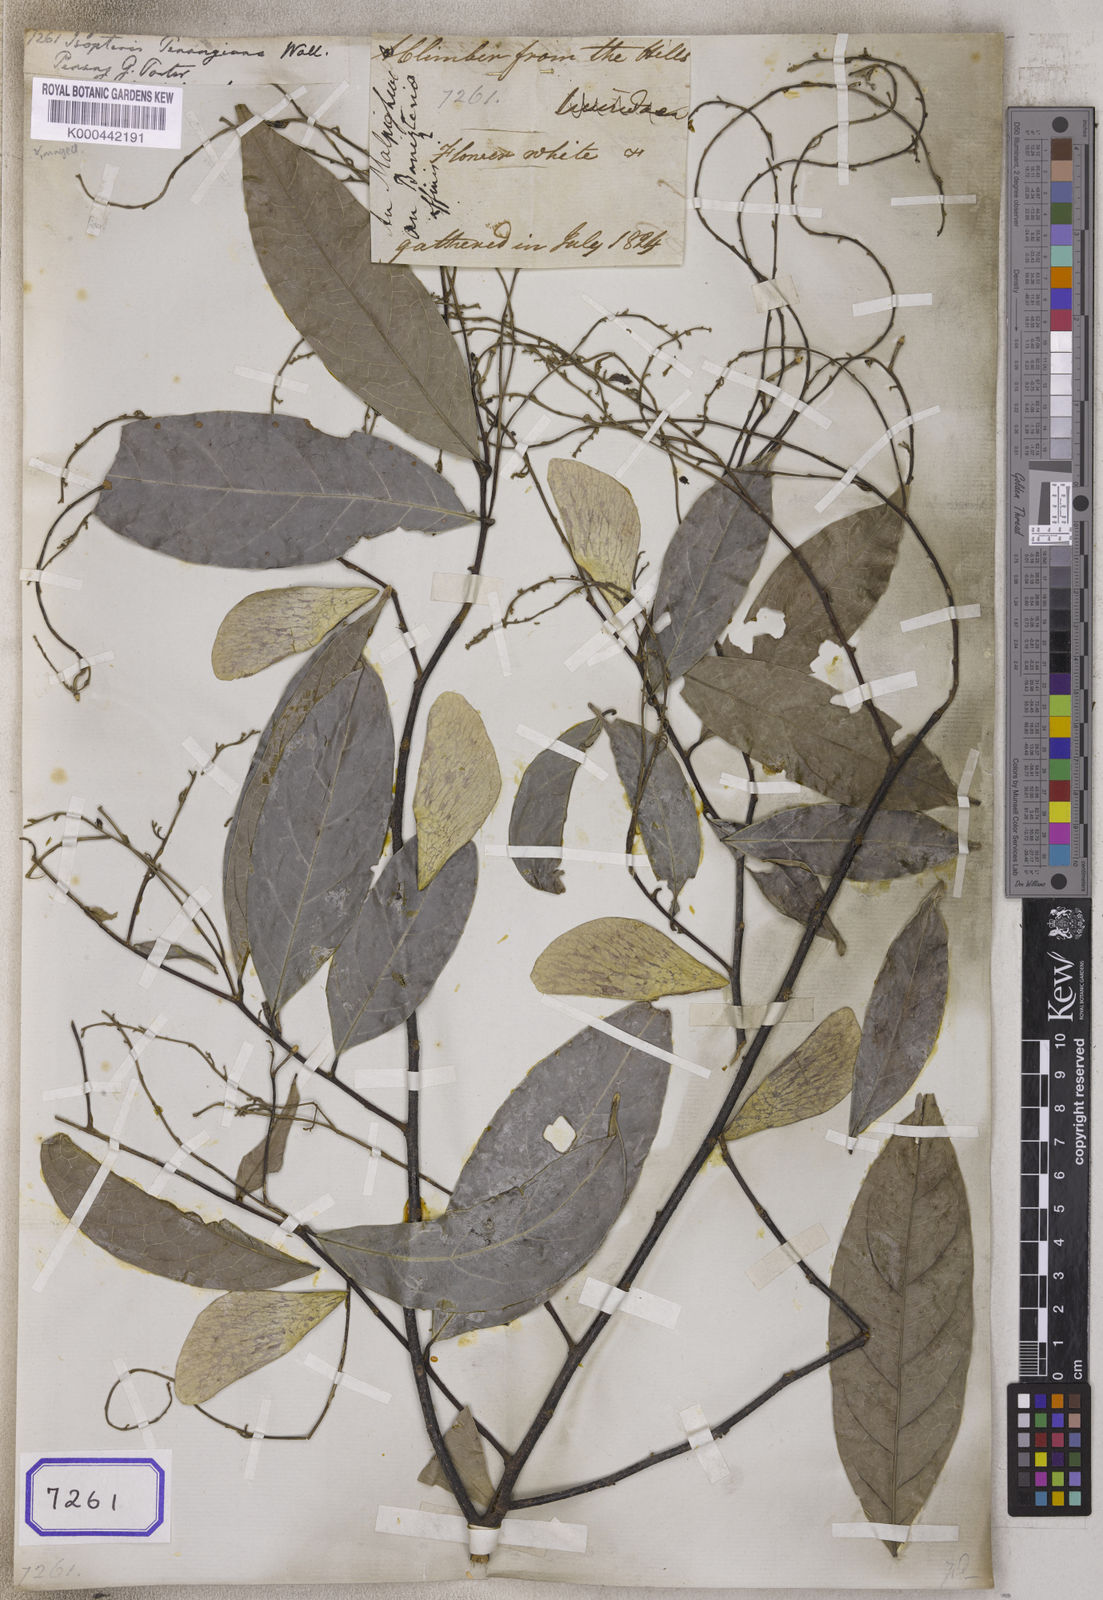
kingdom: Plantae
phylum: Tracheophyta
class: Magnoliopsida
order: Malpighiales
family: Trigoniaceae
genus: Trigoniastrum
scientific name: Trigoniastrum hypoleucum
